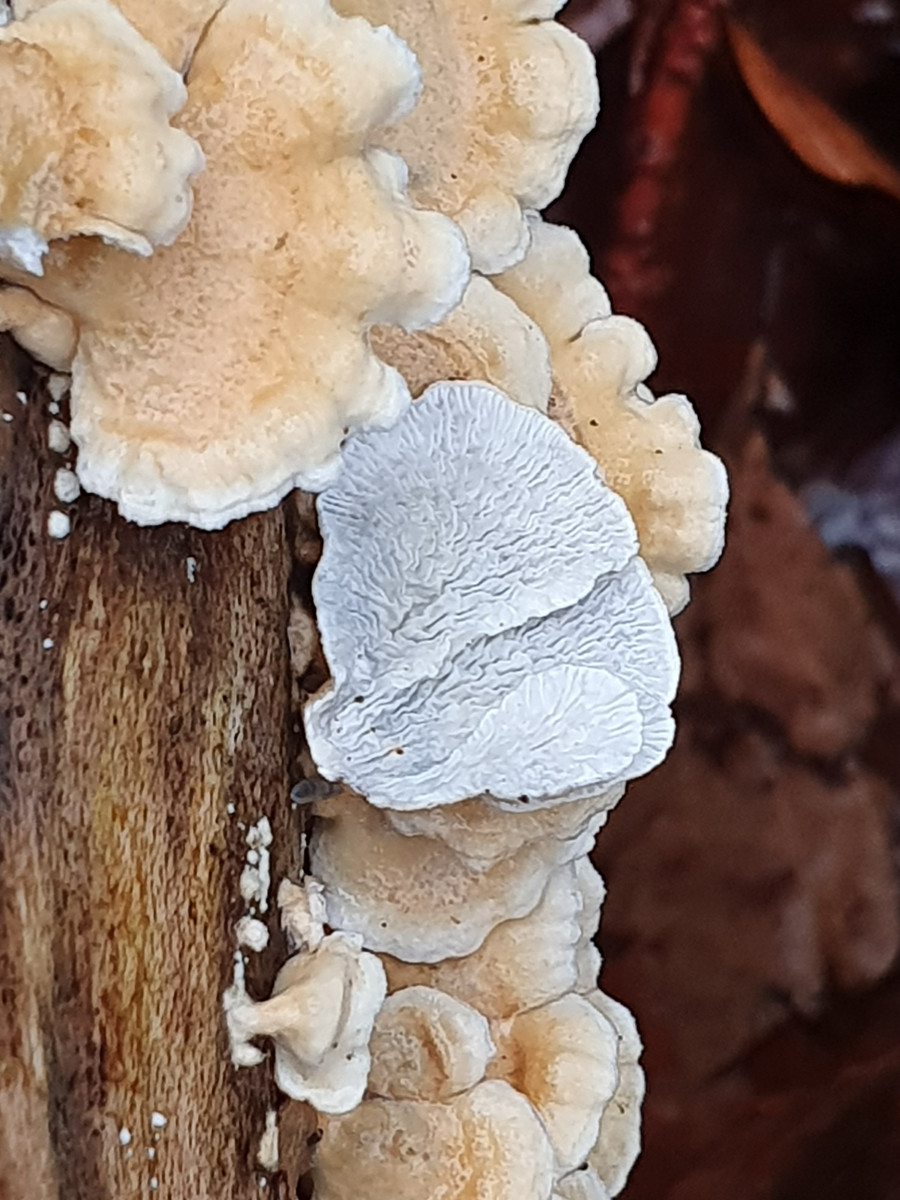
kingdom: Fungi
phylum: Basidiomycota
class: Agaricomycetes
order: Amylocorticiales
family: Amylocorticiaceae
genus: Plicaturopsis
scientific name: Plicaturopsis crispa
